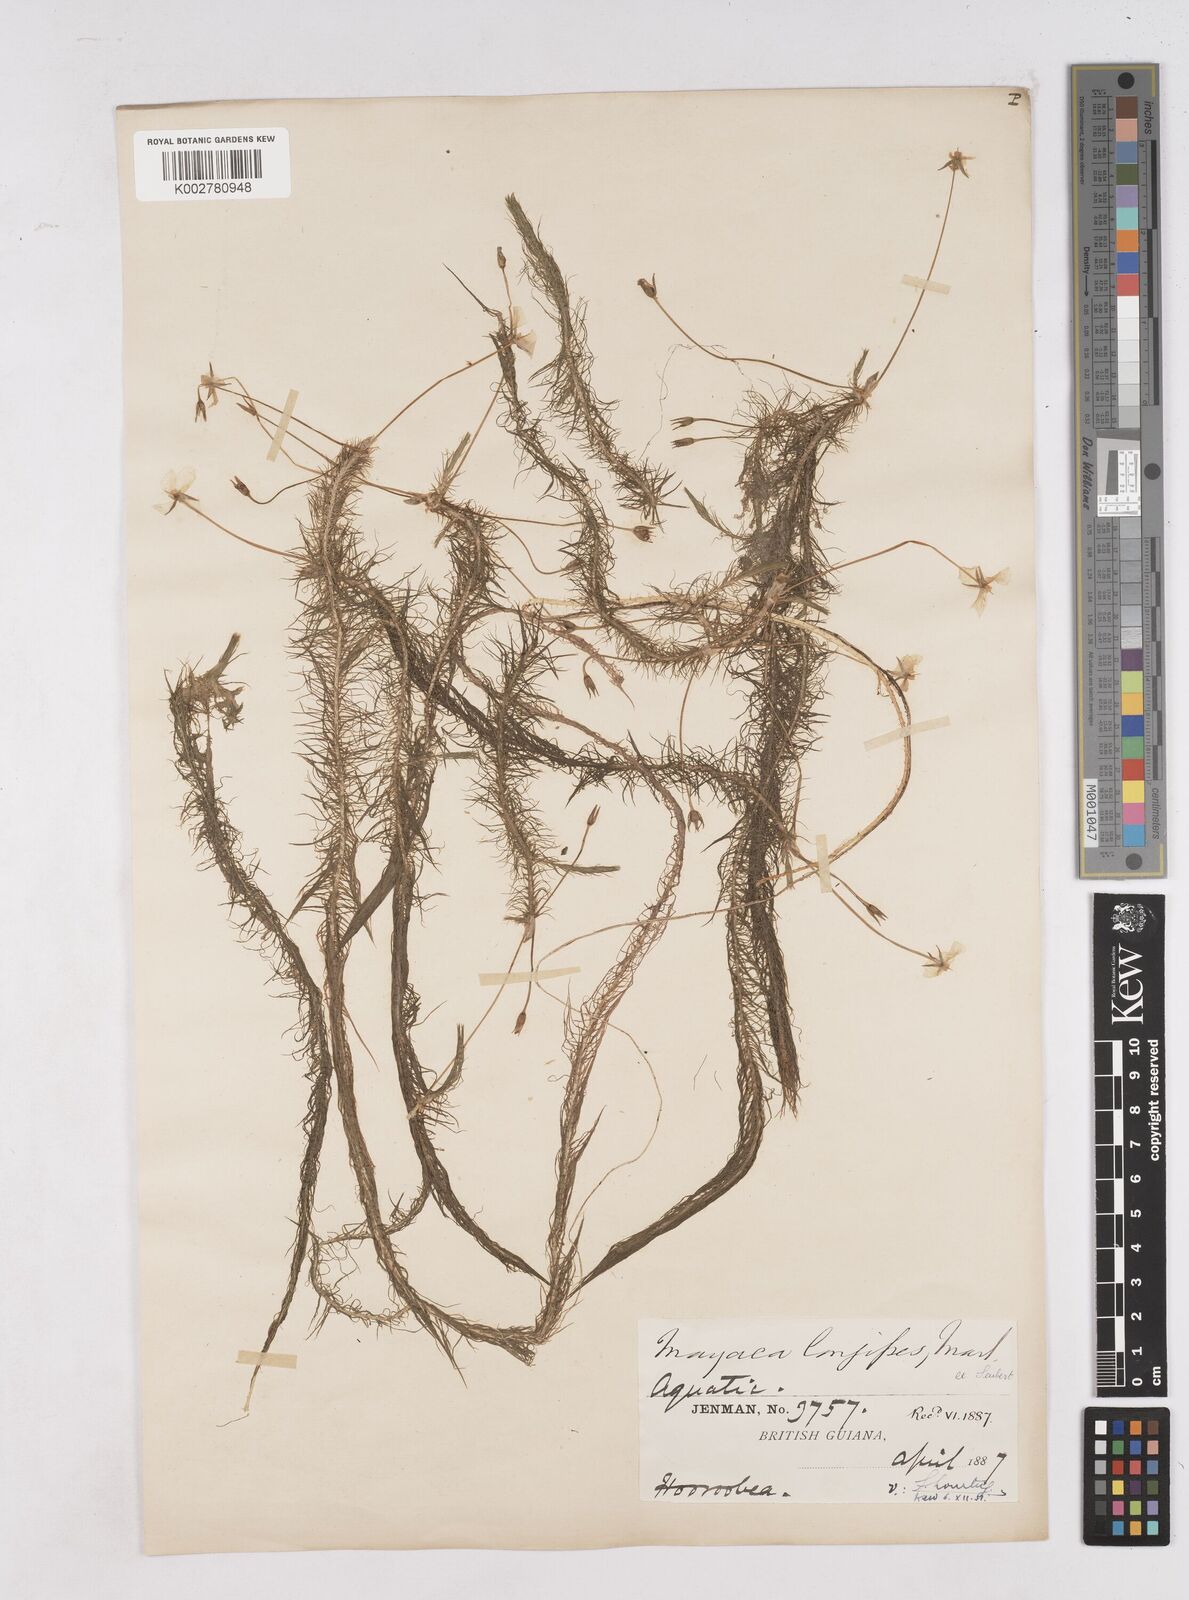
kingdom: Plantae
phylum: Tracheophyta
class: Liliopsida
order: Poales
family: Mayacaceae
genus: Mayaca
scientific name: Mayaca fluviatilis
